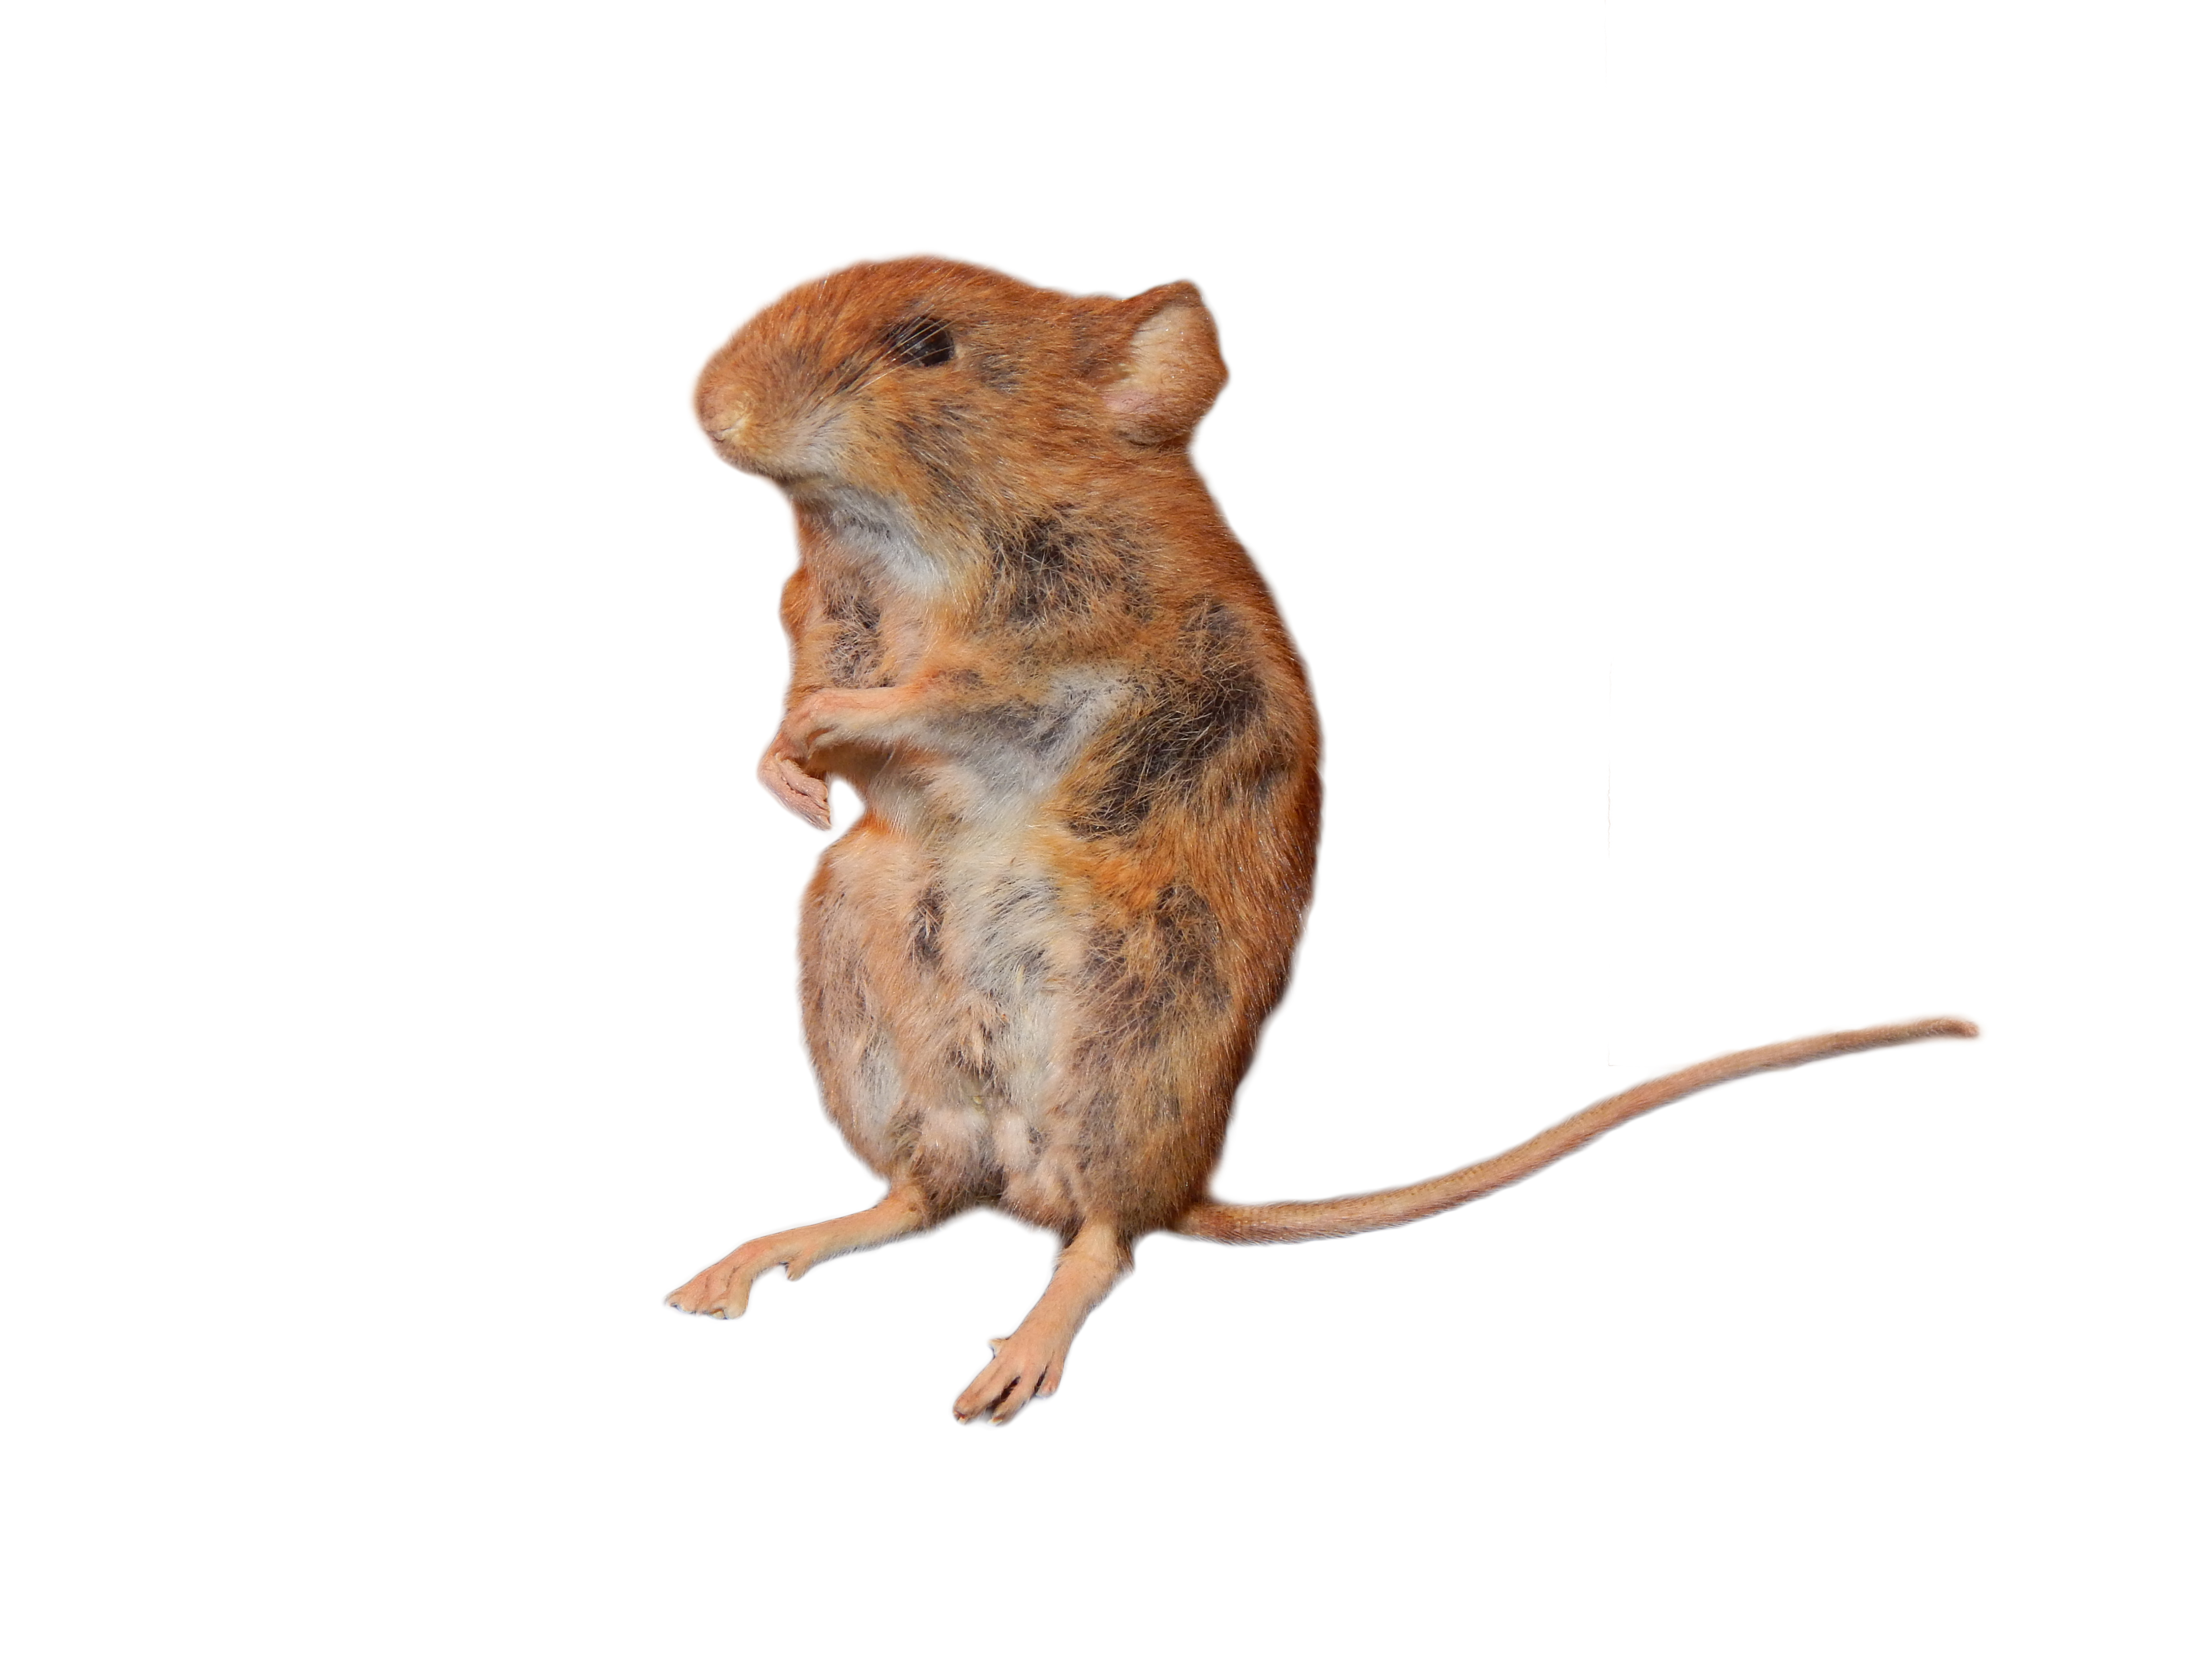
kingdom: Animalia
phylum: Chordata
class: Mammalia
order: Rodentia
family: Muridae
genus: Apodemus
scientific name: Apodemus sylvaticus
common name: Wood mouse
